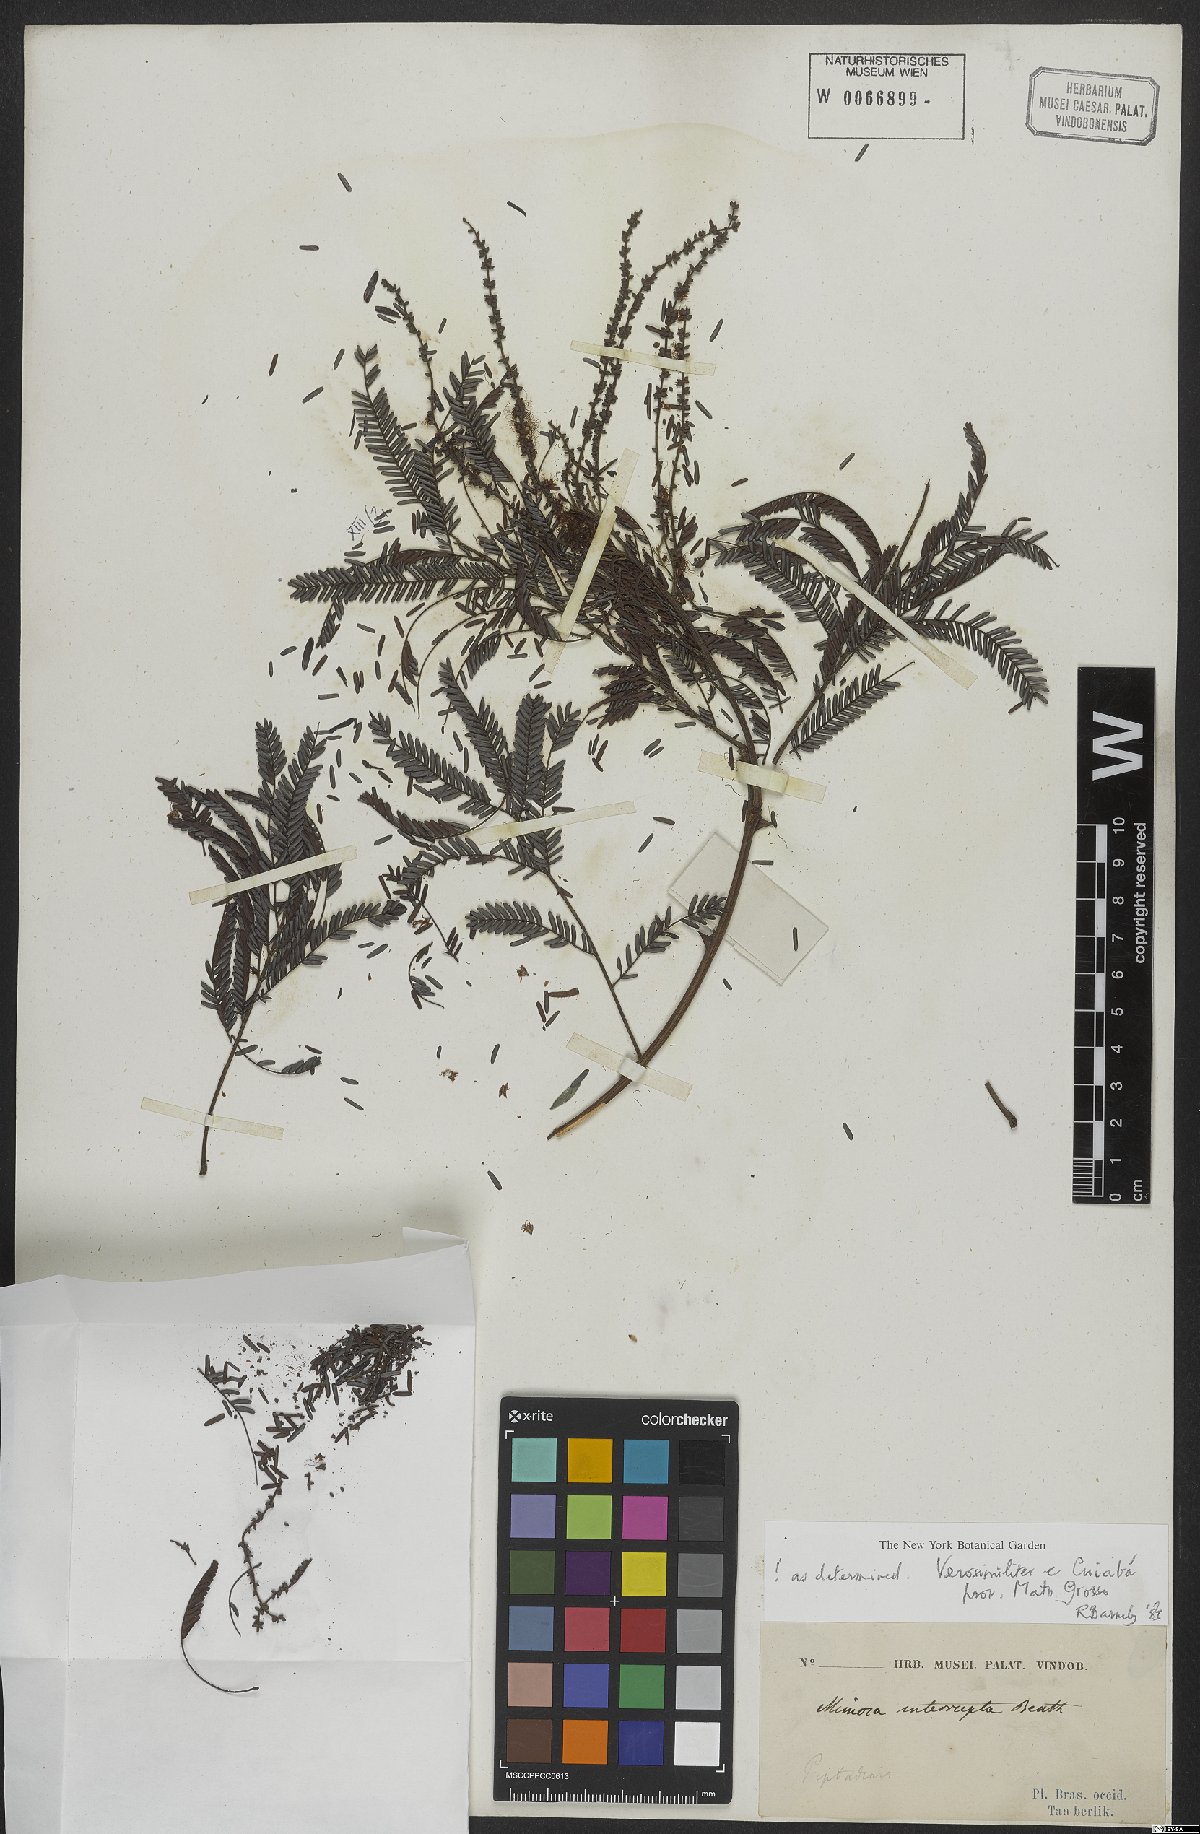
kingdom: Plantae
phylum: Tracheophyta
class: Magnoliopsida
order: Fabales
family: Fabaceae
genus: Mimosa
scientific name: Mimosa interrupta
